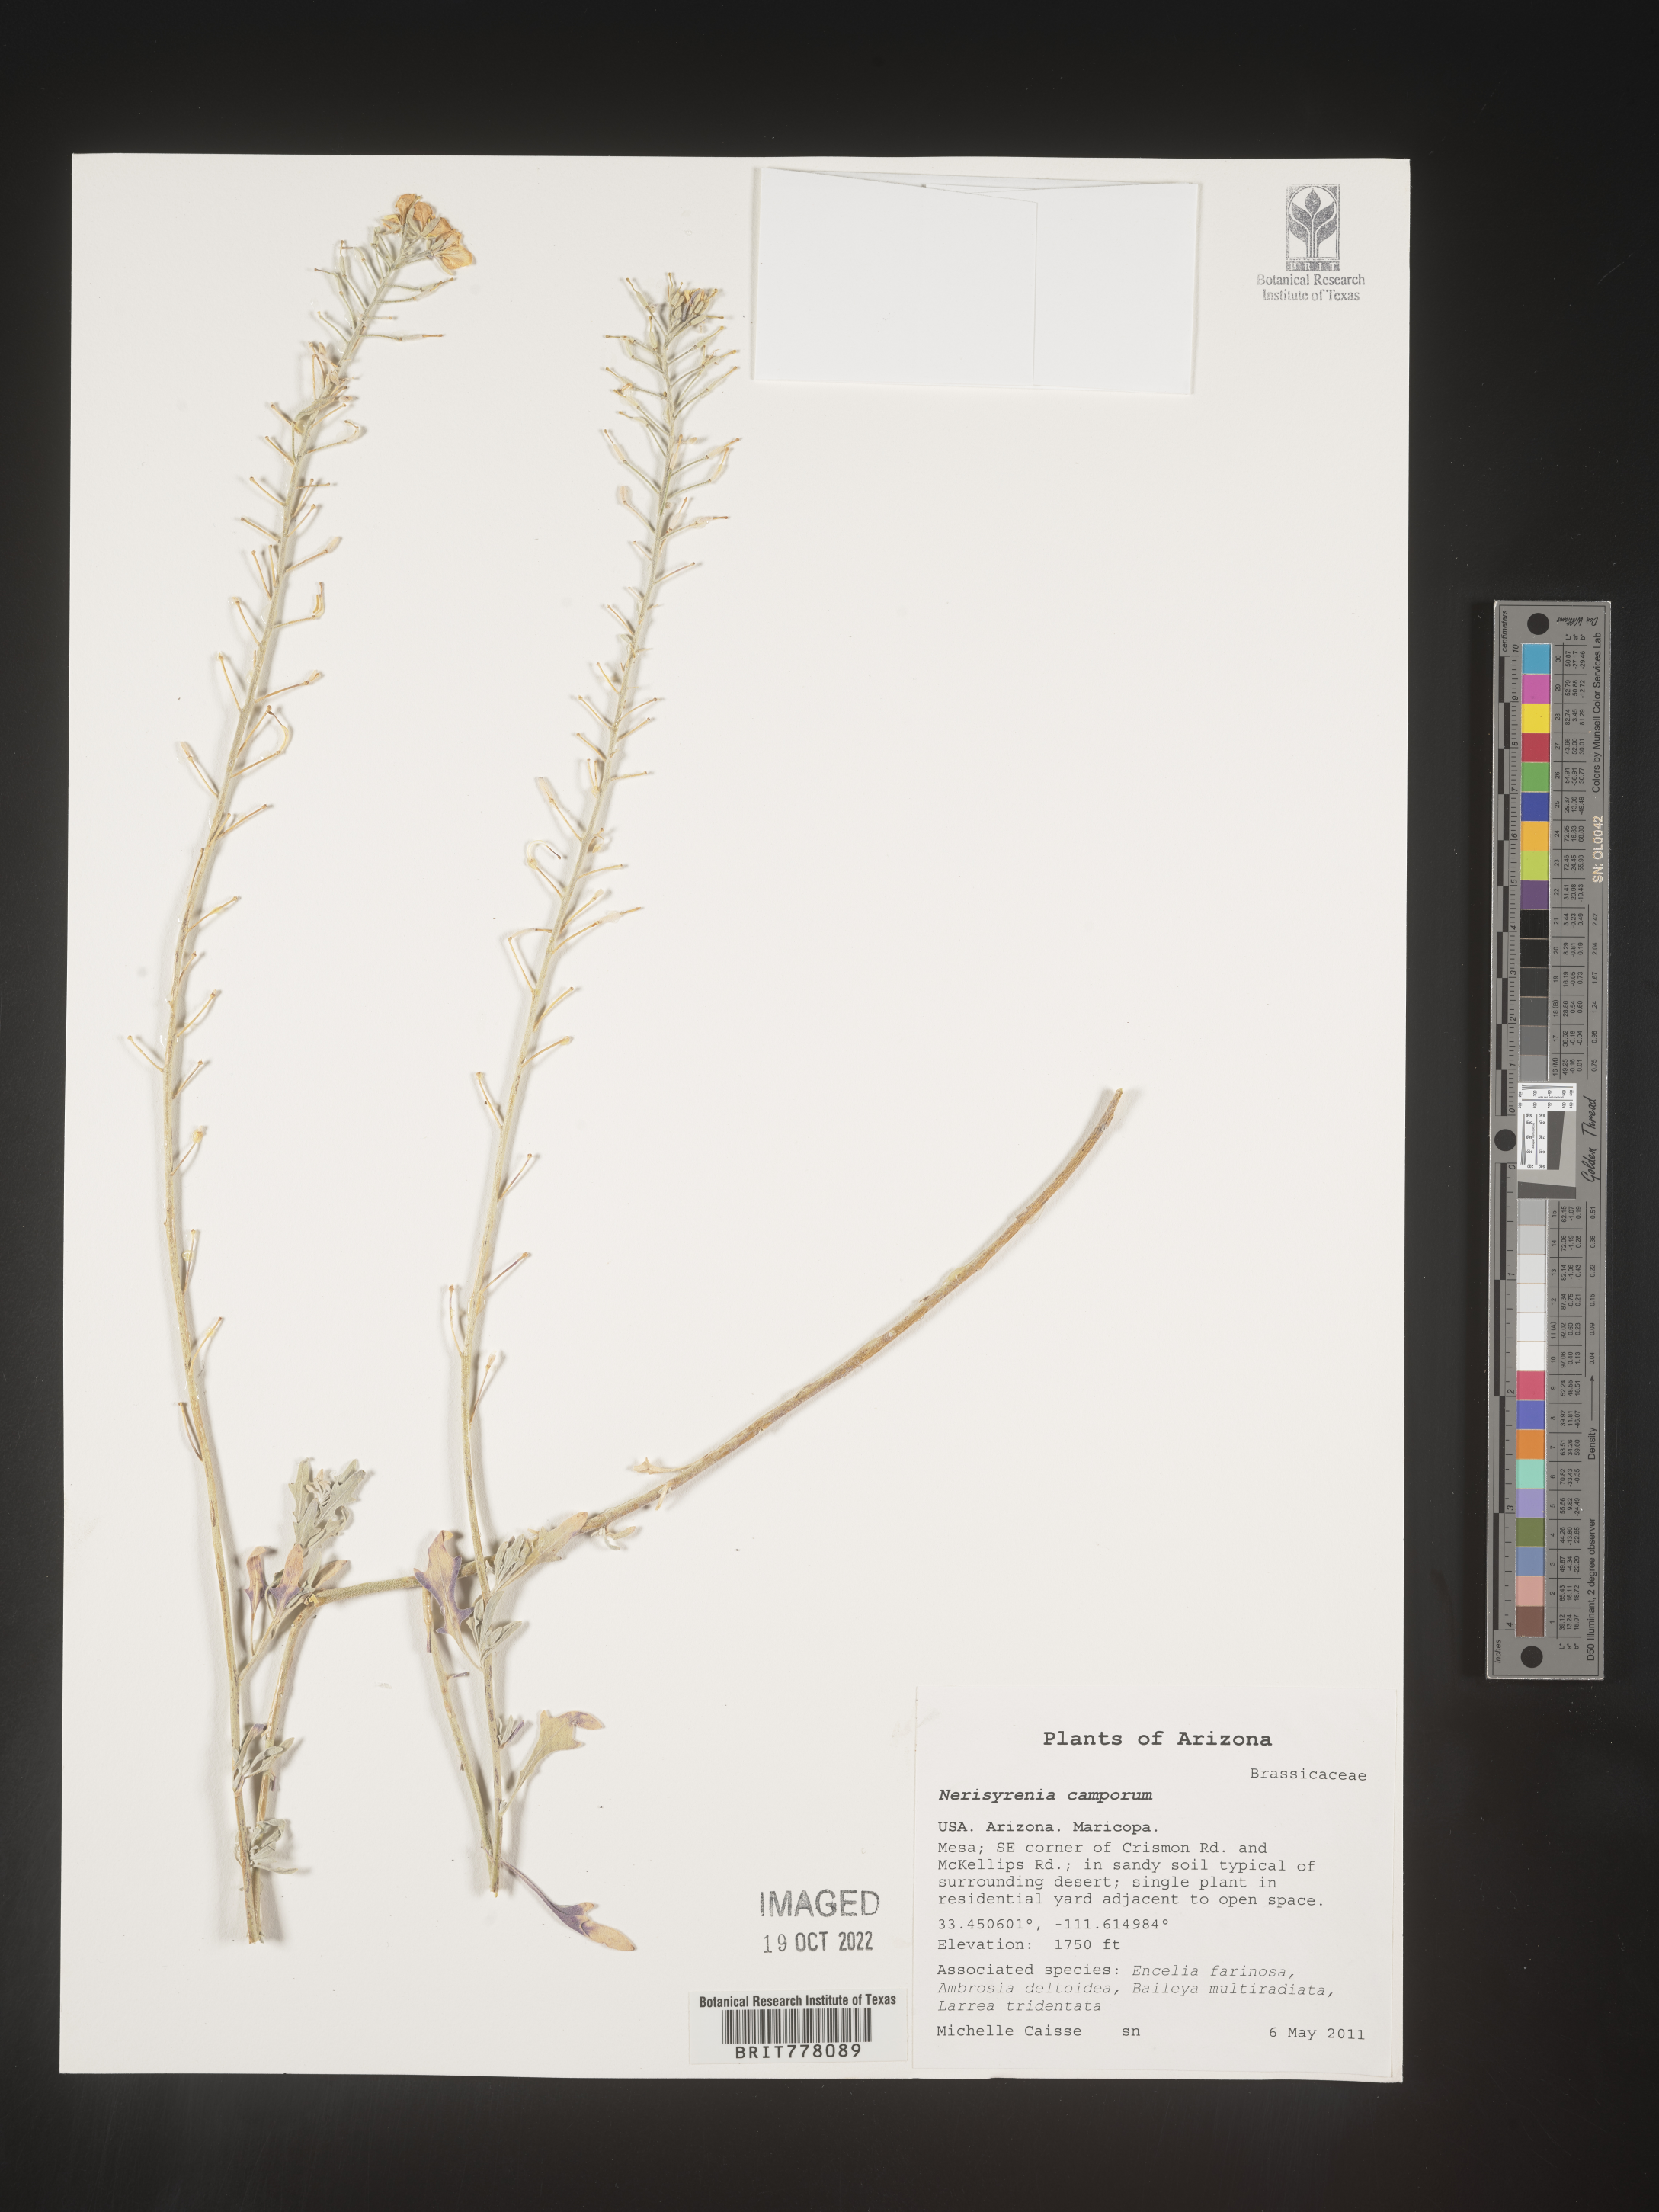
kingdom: Plantae
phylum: Tracheophyta
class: Magnoliopsida
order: Brassicales
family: Brassicaceae
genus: Nerisyrenia
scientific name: Nerisyrenia
